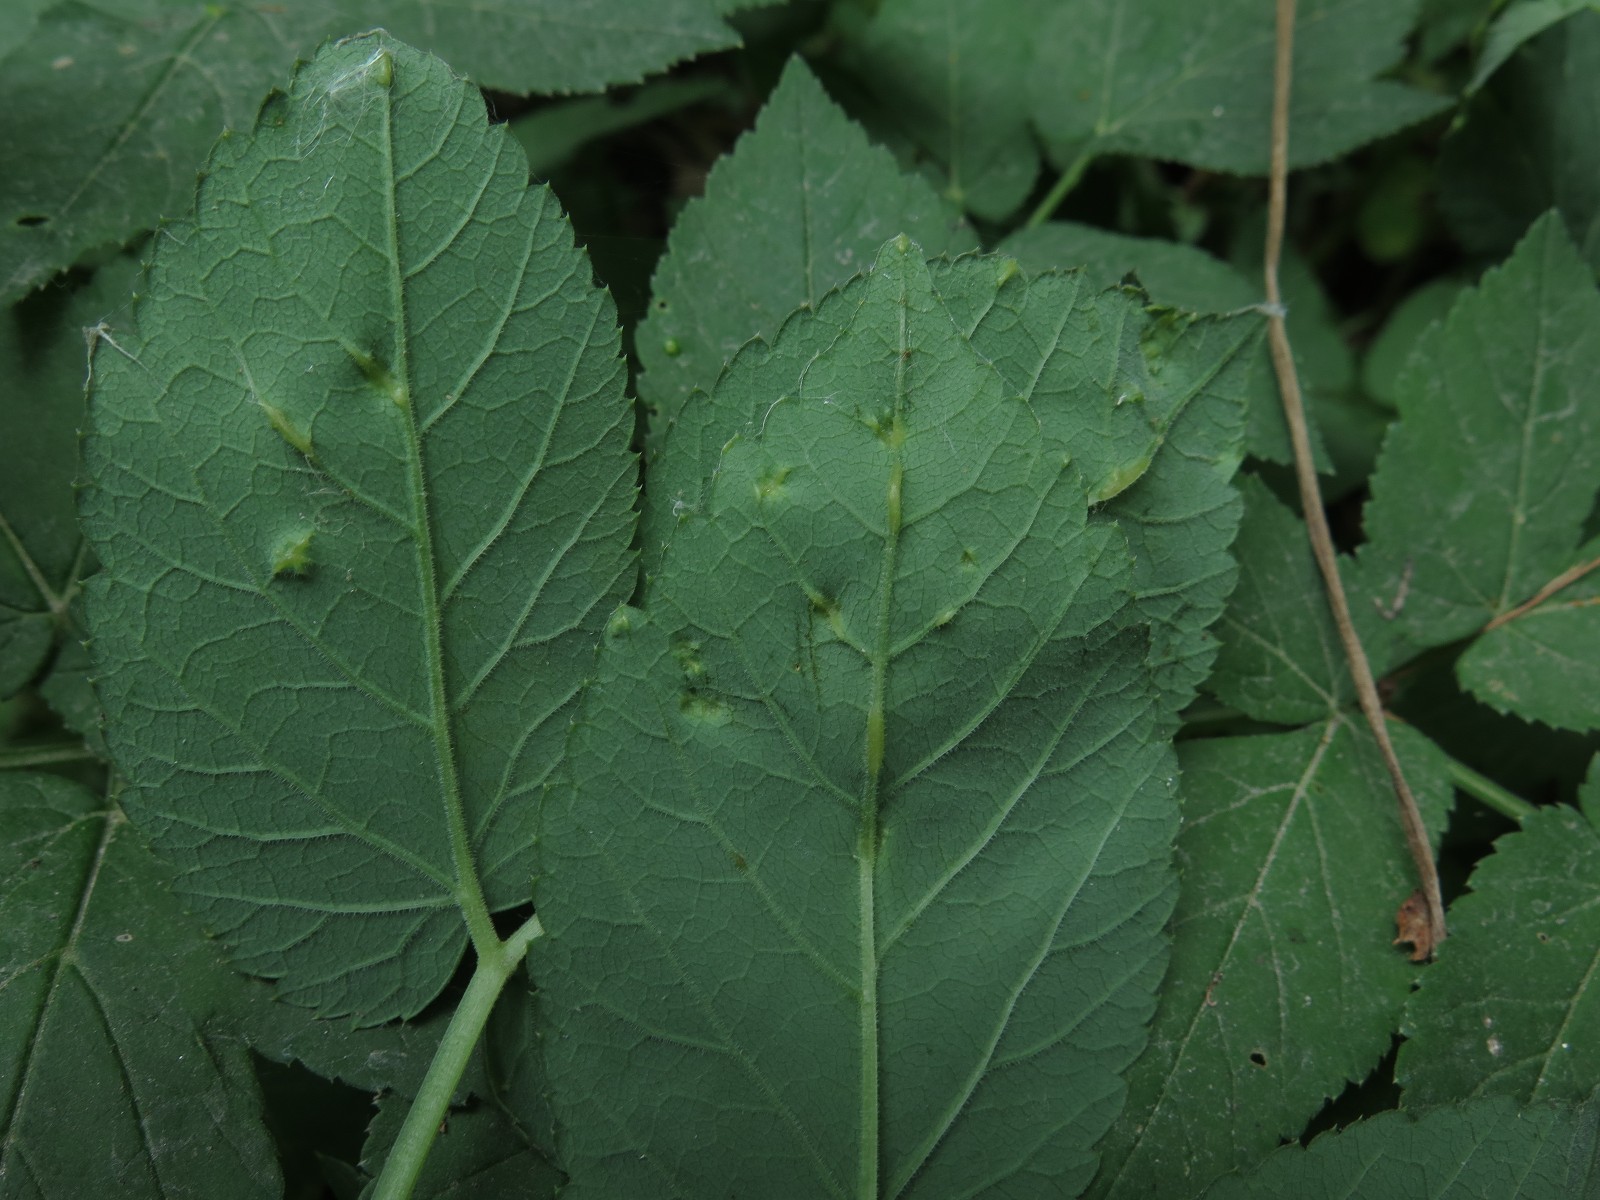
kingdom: Fungi
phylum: Ascomycota
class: Taphrinomycetes
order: Taphrinales
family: Taphrinaceae
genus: Protomyces
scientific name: Protomyces macrosporus
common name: skvalderkål-vablesæk
